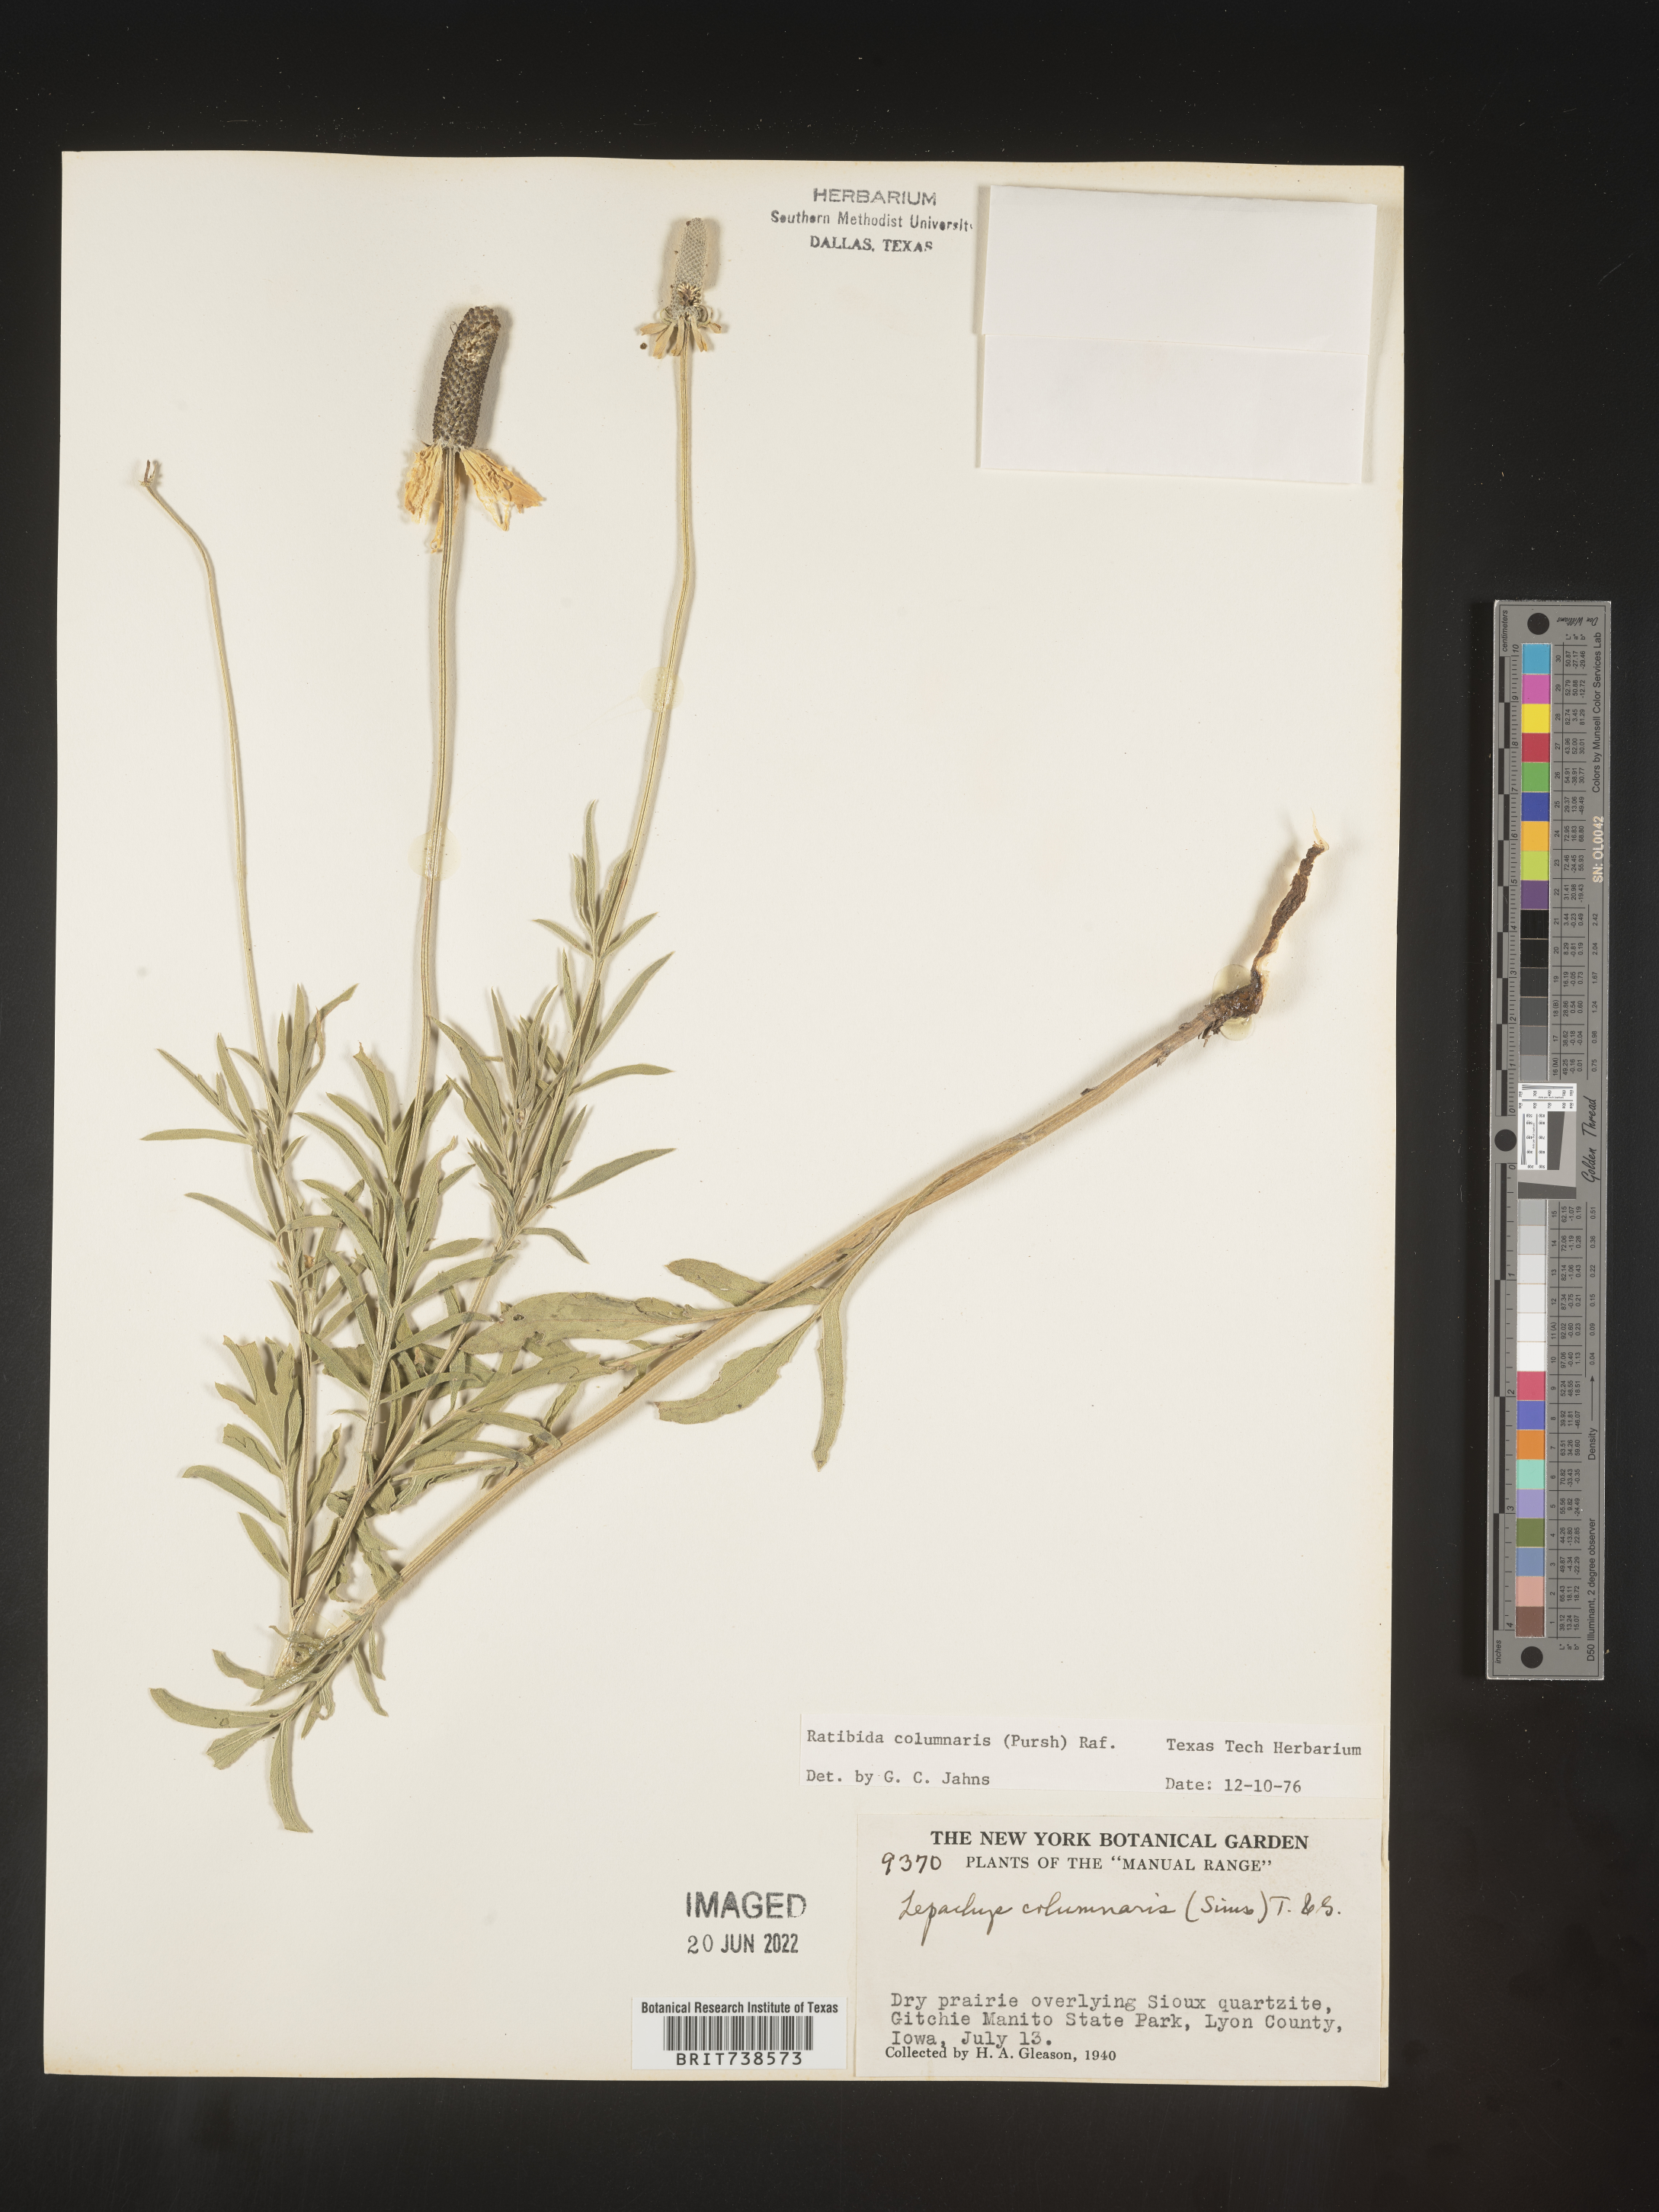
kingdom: Plantae
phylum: Tracheophyta
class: Magnoliopsida
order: Asterales
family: Asteraceae
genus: Ratibida
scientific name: Ratibida columnifera
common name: Prairie coneflower
